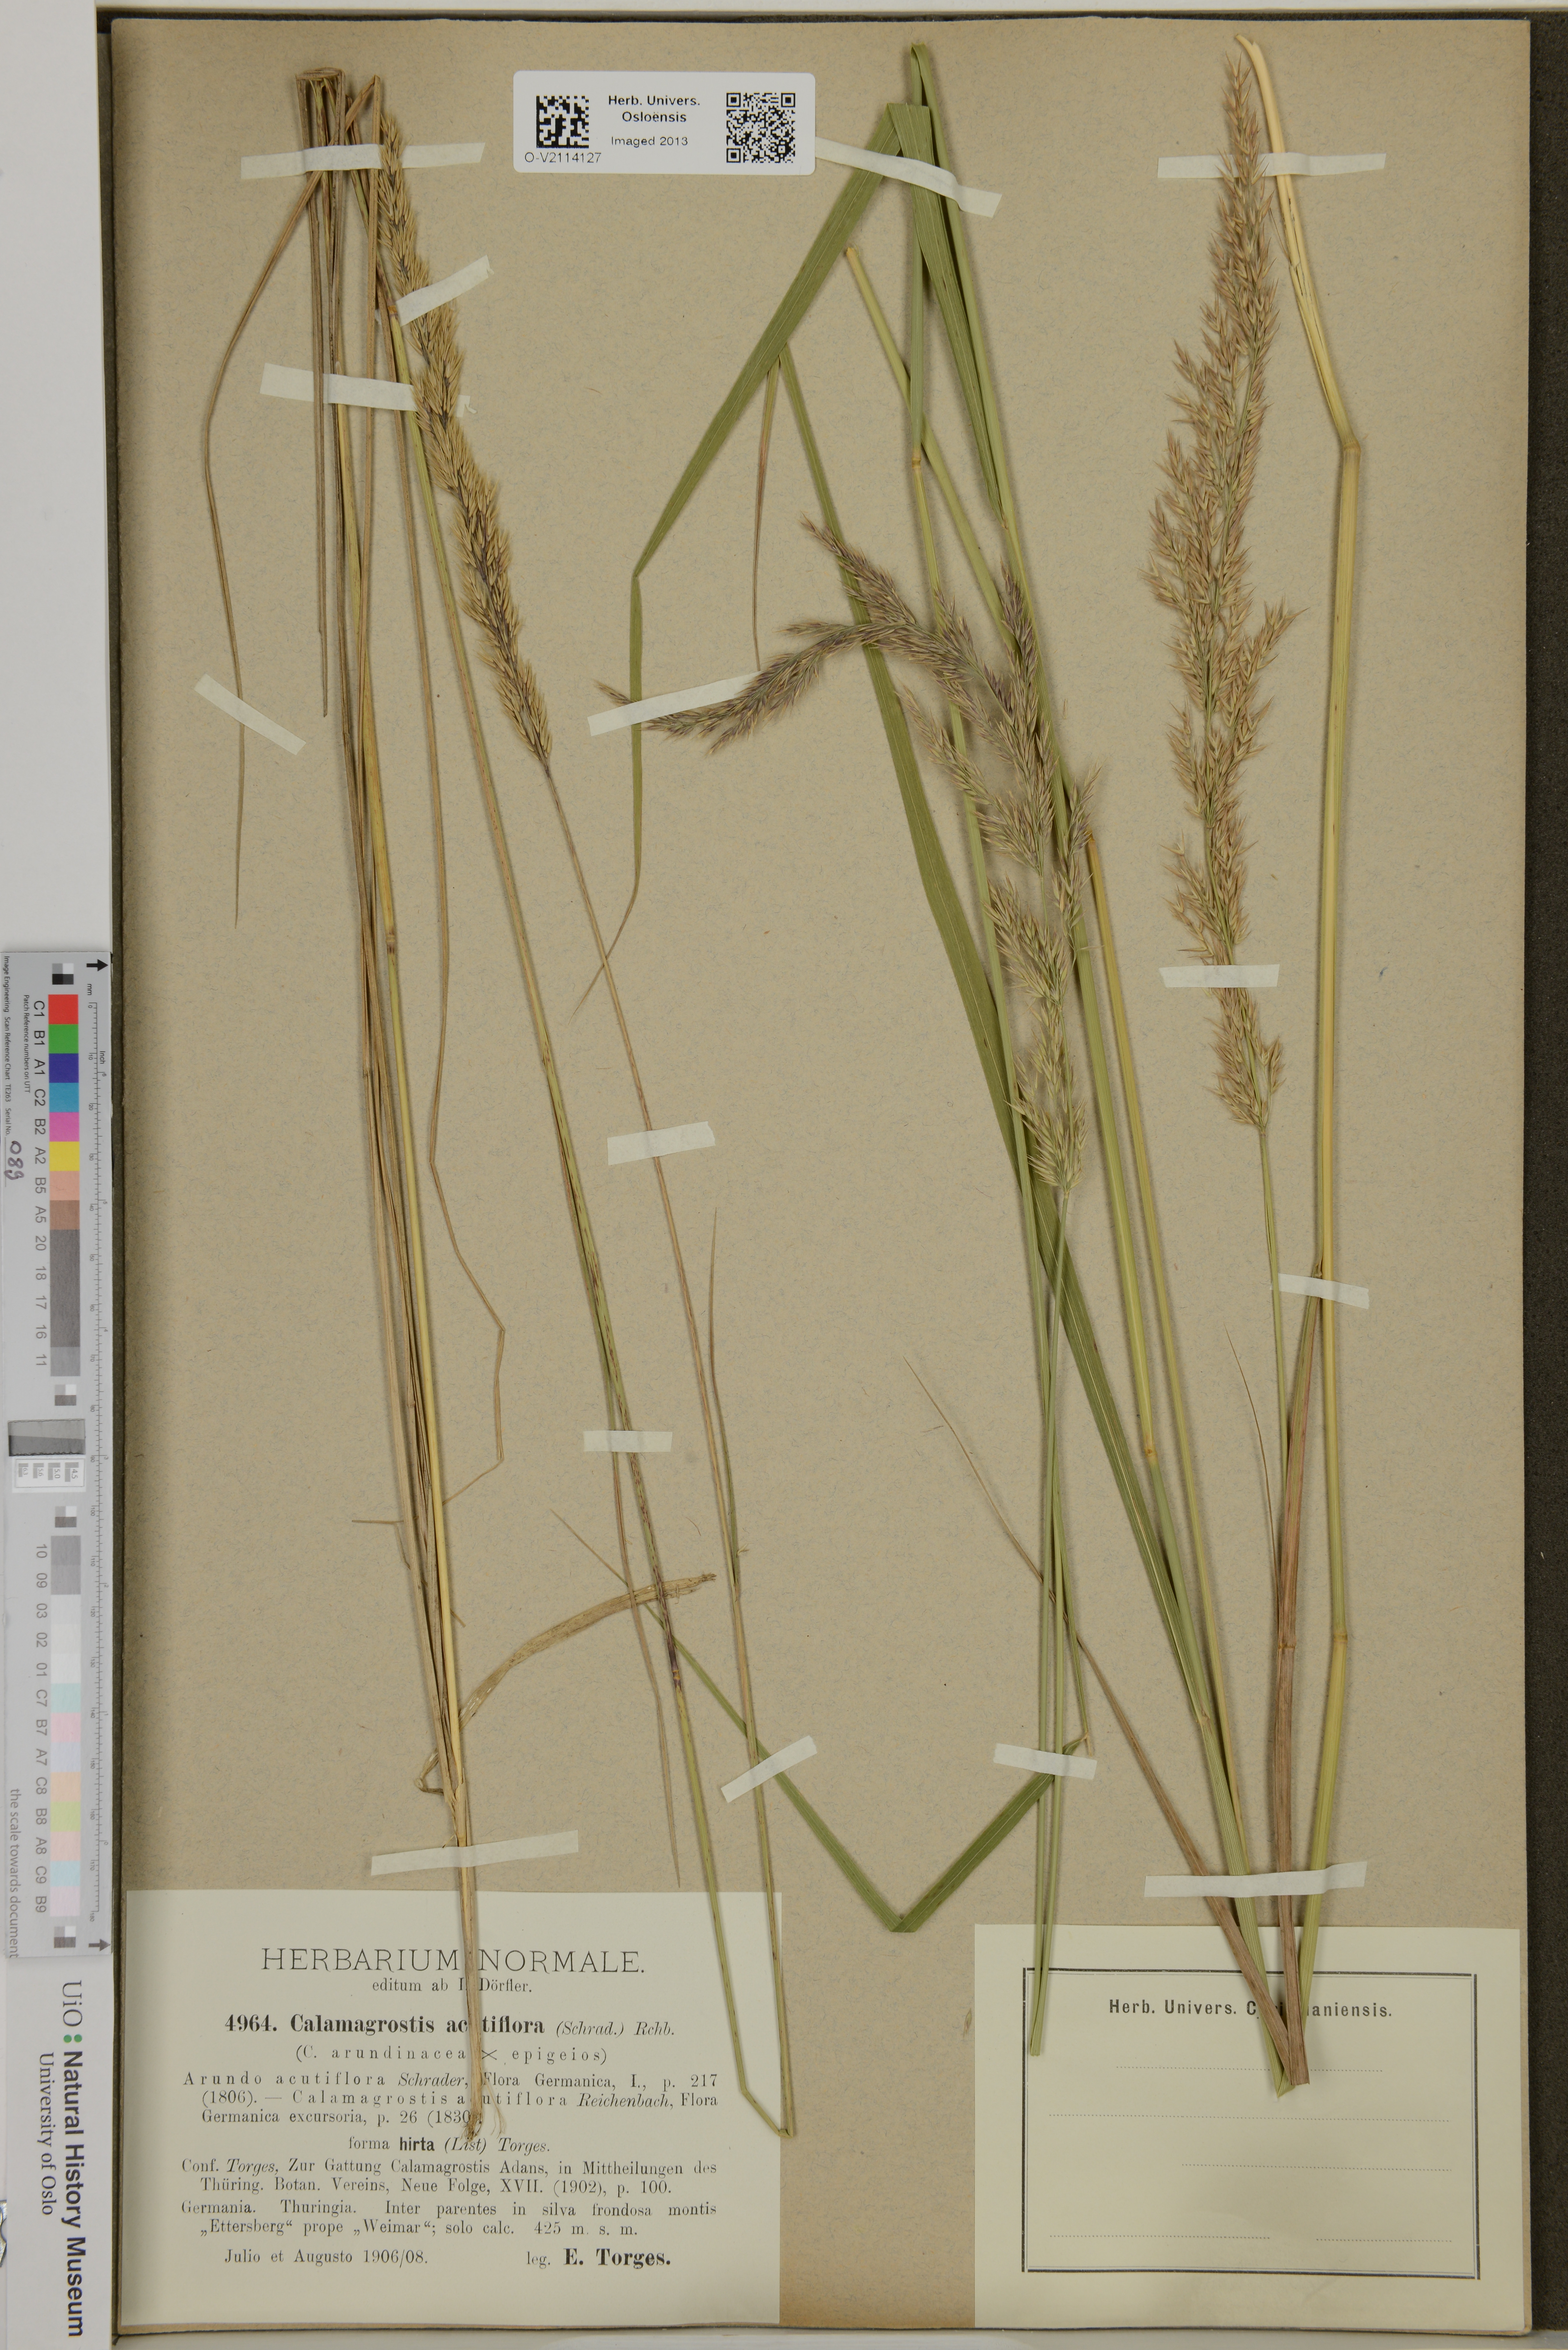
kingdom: Plantae
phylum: Tracheophyta
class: Liliopsida
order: Poales
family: Poaceae
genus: Calamagrostis
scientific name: Calamagrostis acutiflora
